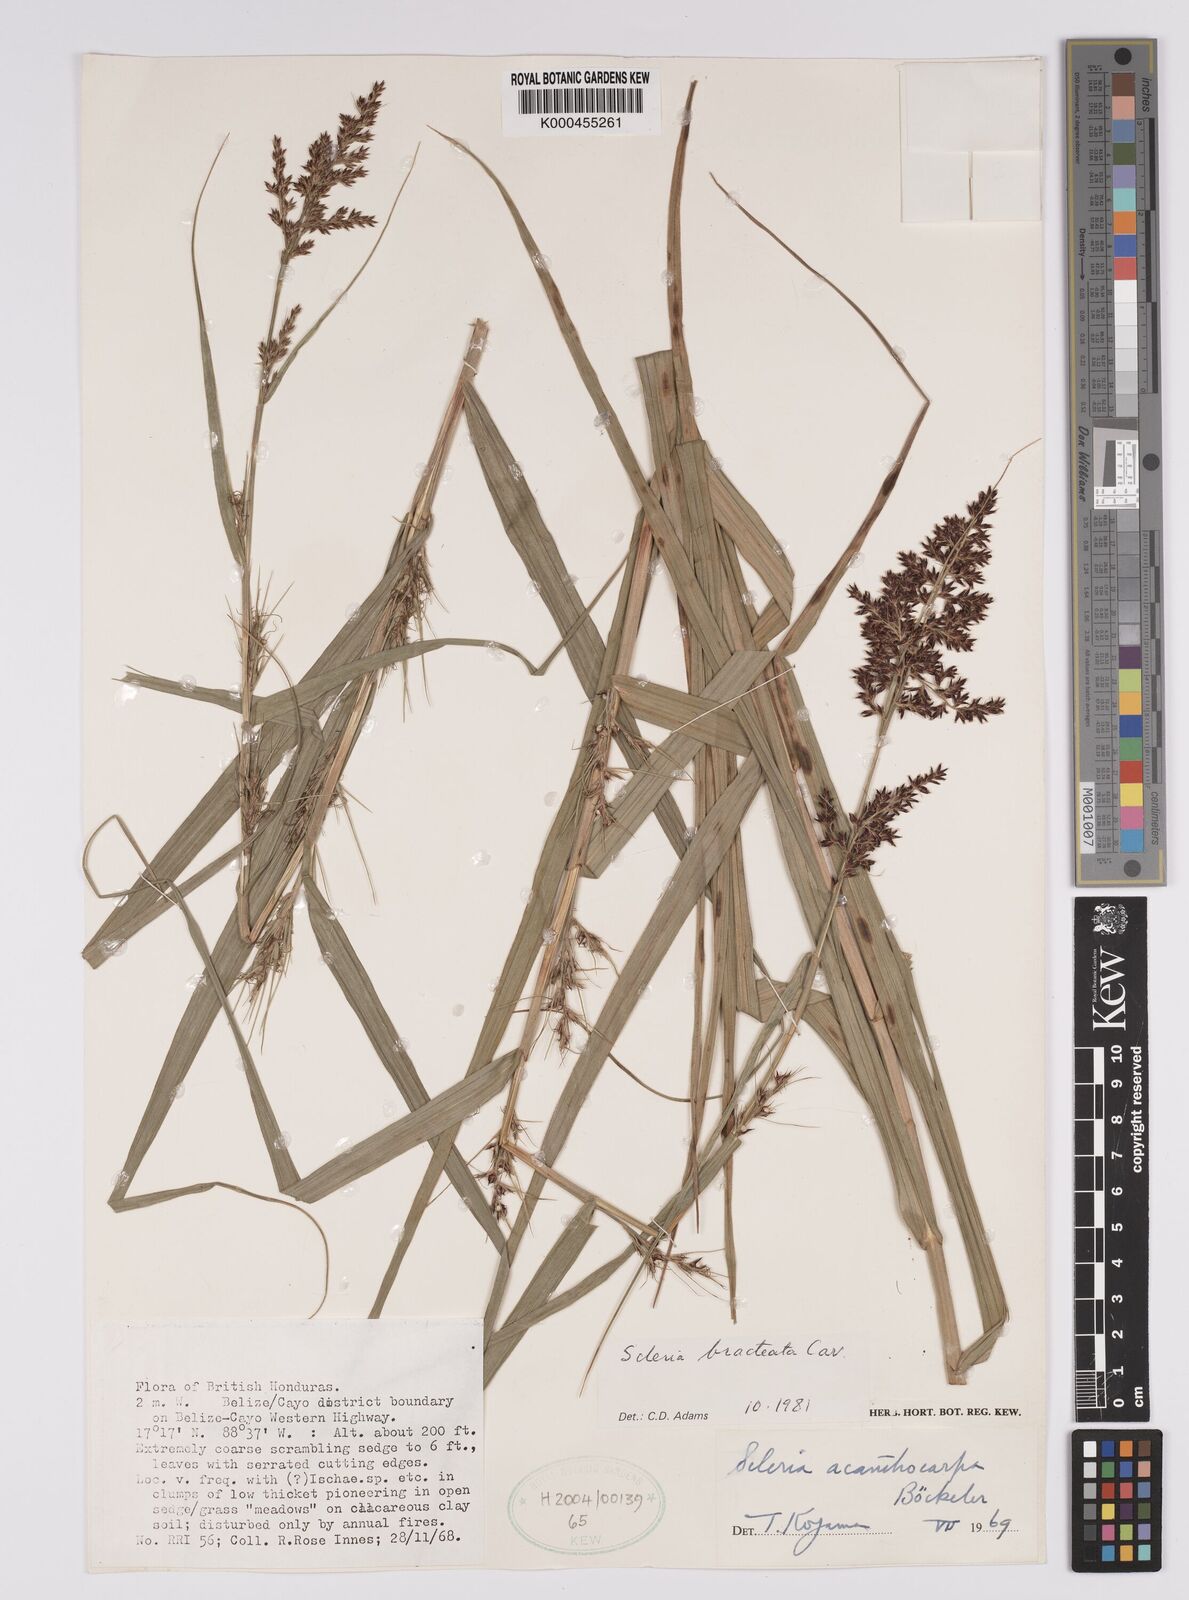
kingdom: Plantae
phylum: Tracheophyta
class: Liliopsida
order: Poales
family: Cyperaceae
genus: Scleria
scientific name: Scleria bracteata
